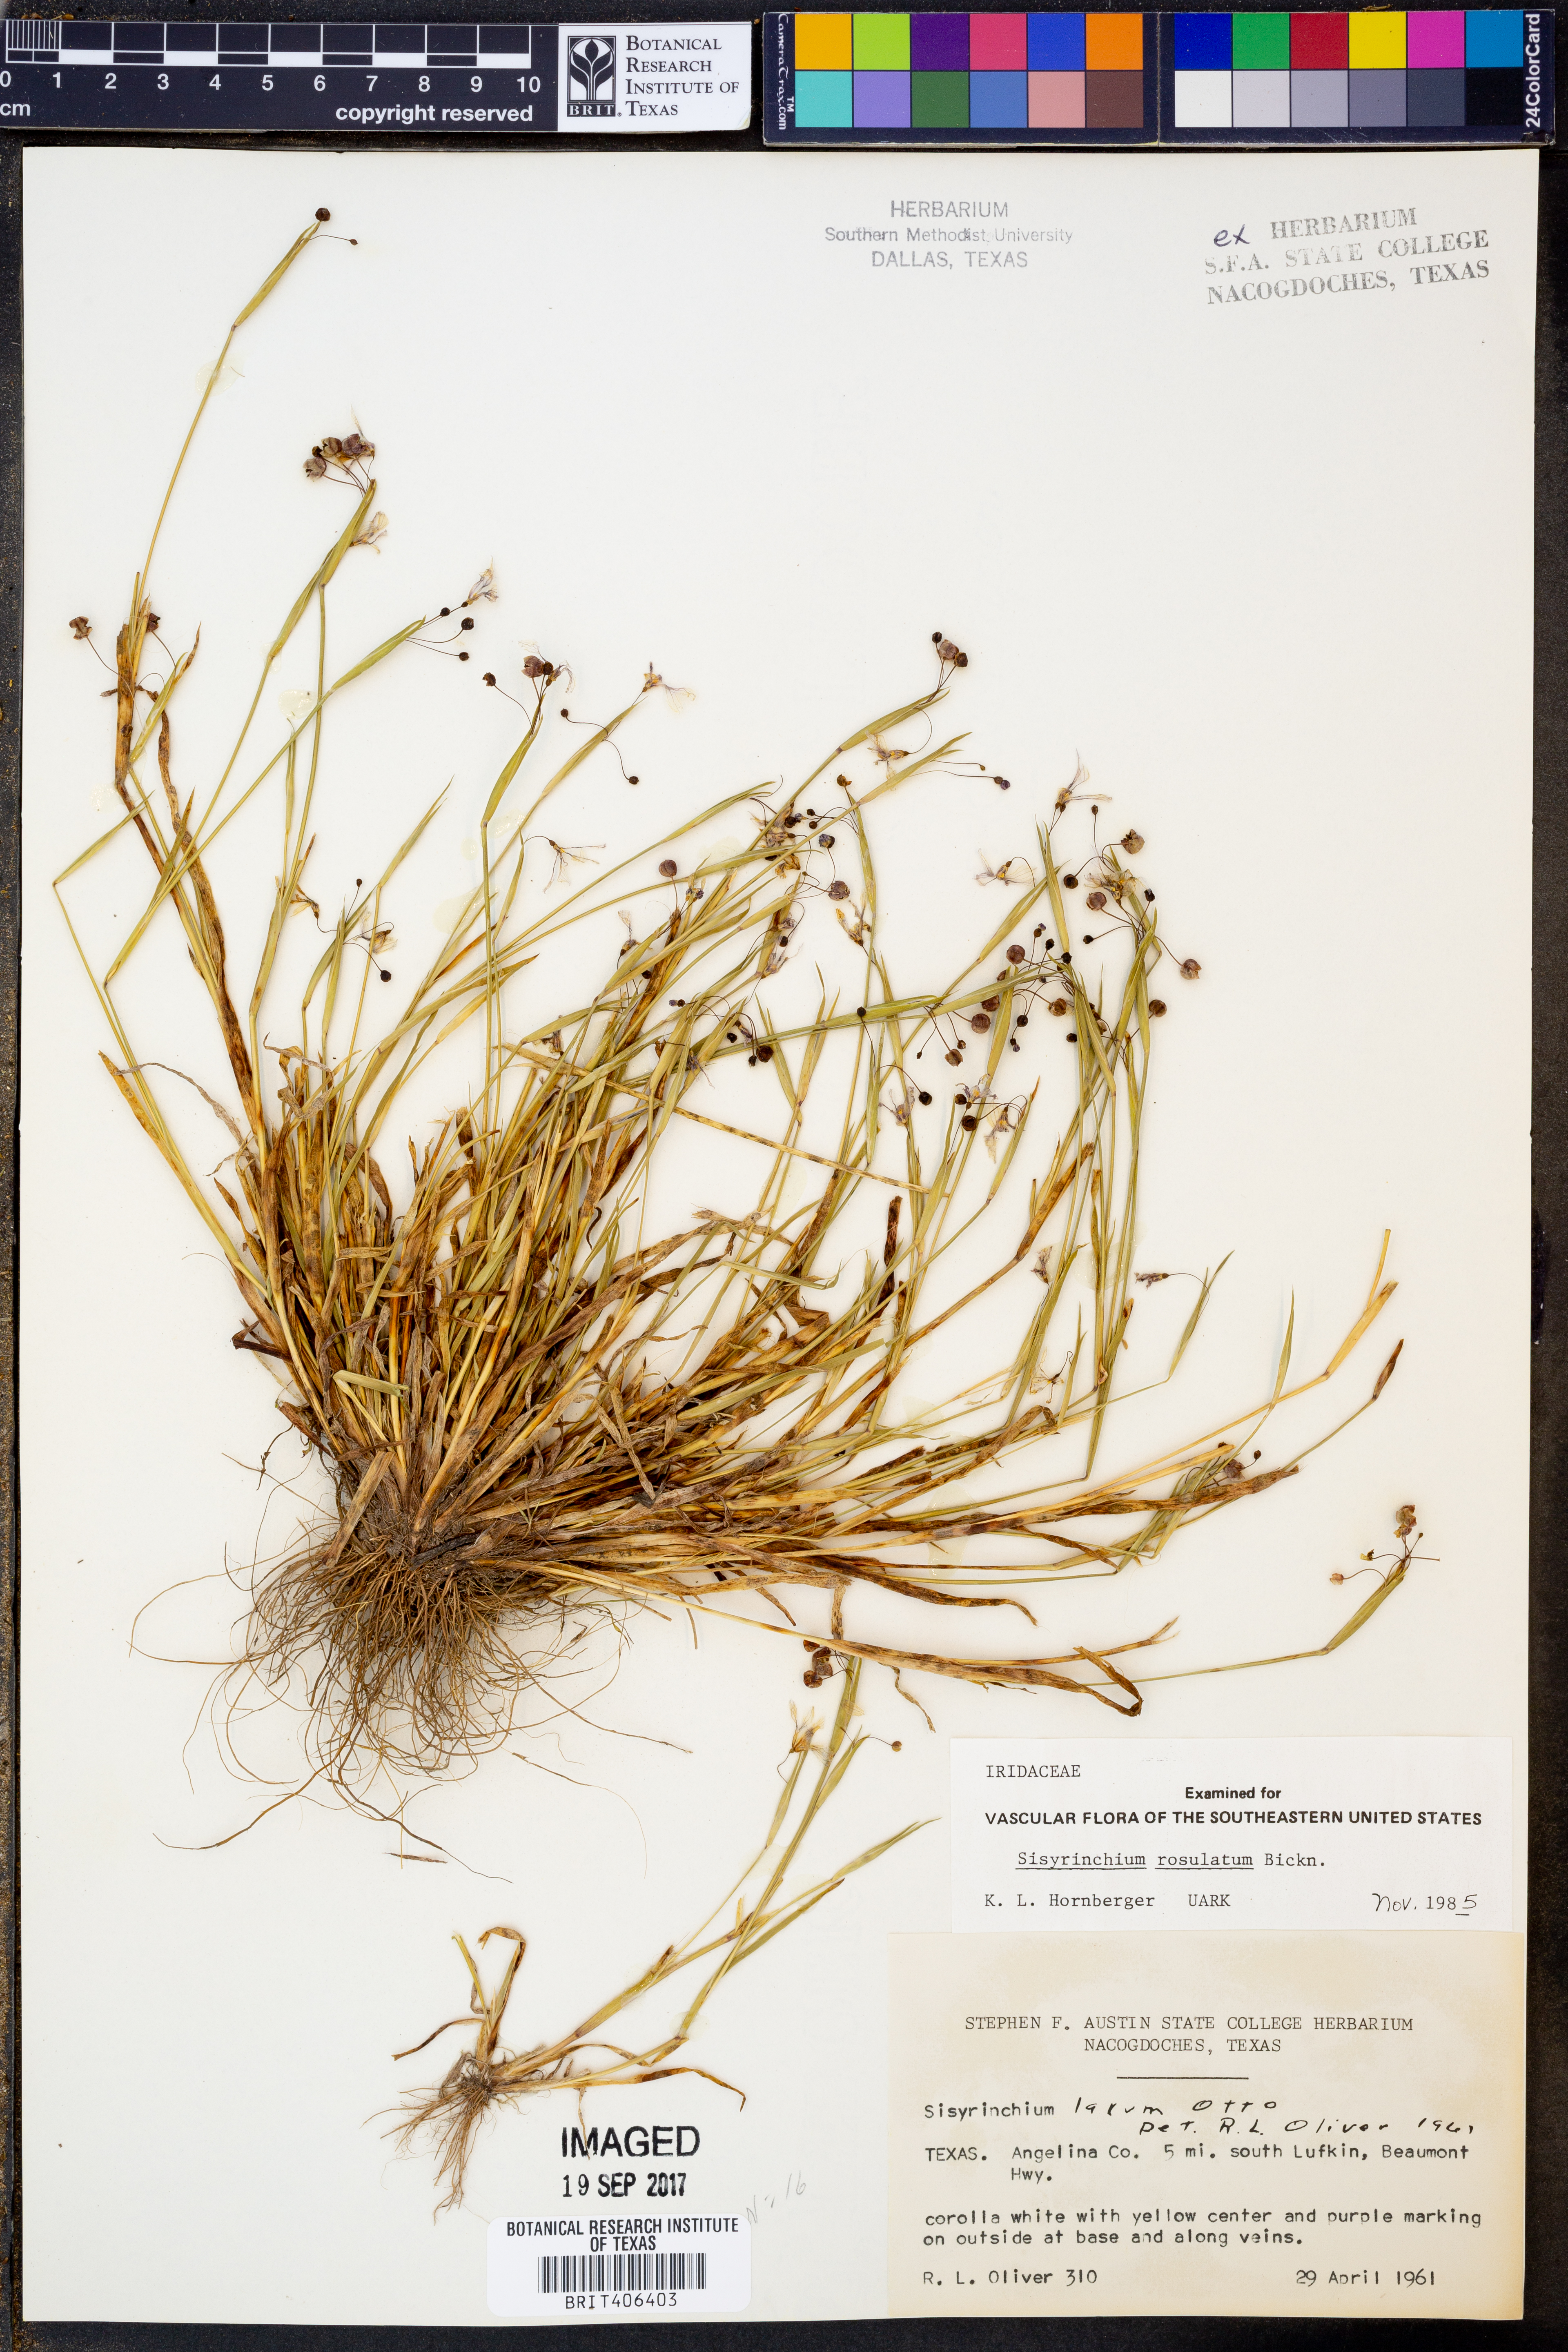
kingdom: Plantae
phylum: Tracheophyta
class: Liliopsida
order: Asparagales
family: Iridaceae
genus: Sisyrinchium
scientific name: Sisyrinchium rosulatum
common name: Annual blue-eyed grass
